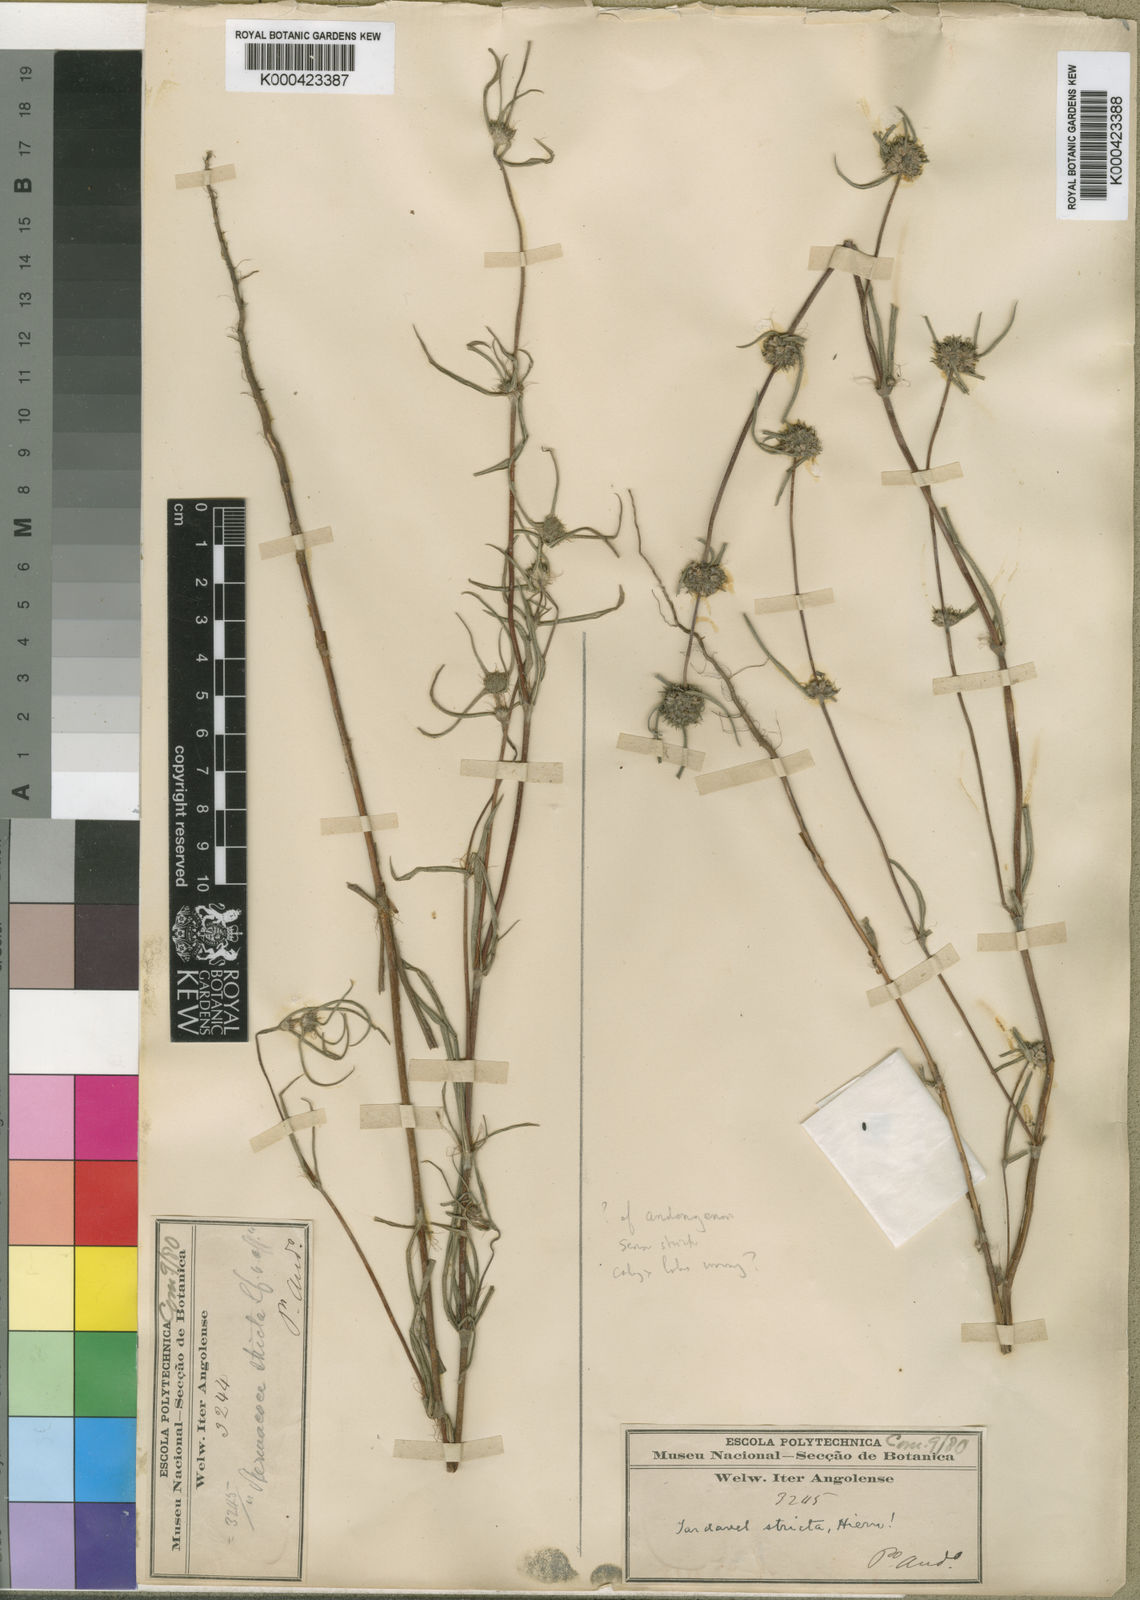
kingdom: Plantae
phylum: Tracheophyta
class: Magnoliopsida
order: Gentianales
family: Rubiaceae
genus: Spermacoce
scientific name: Spermacoce radiata
